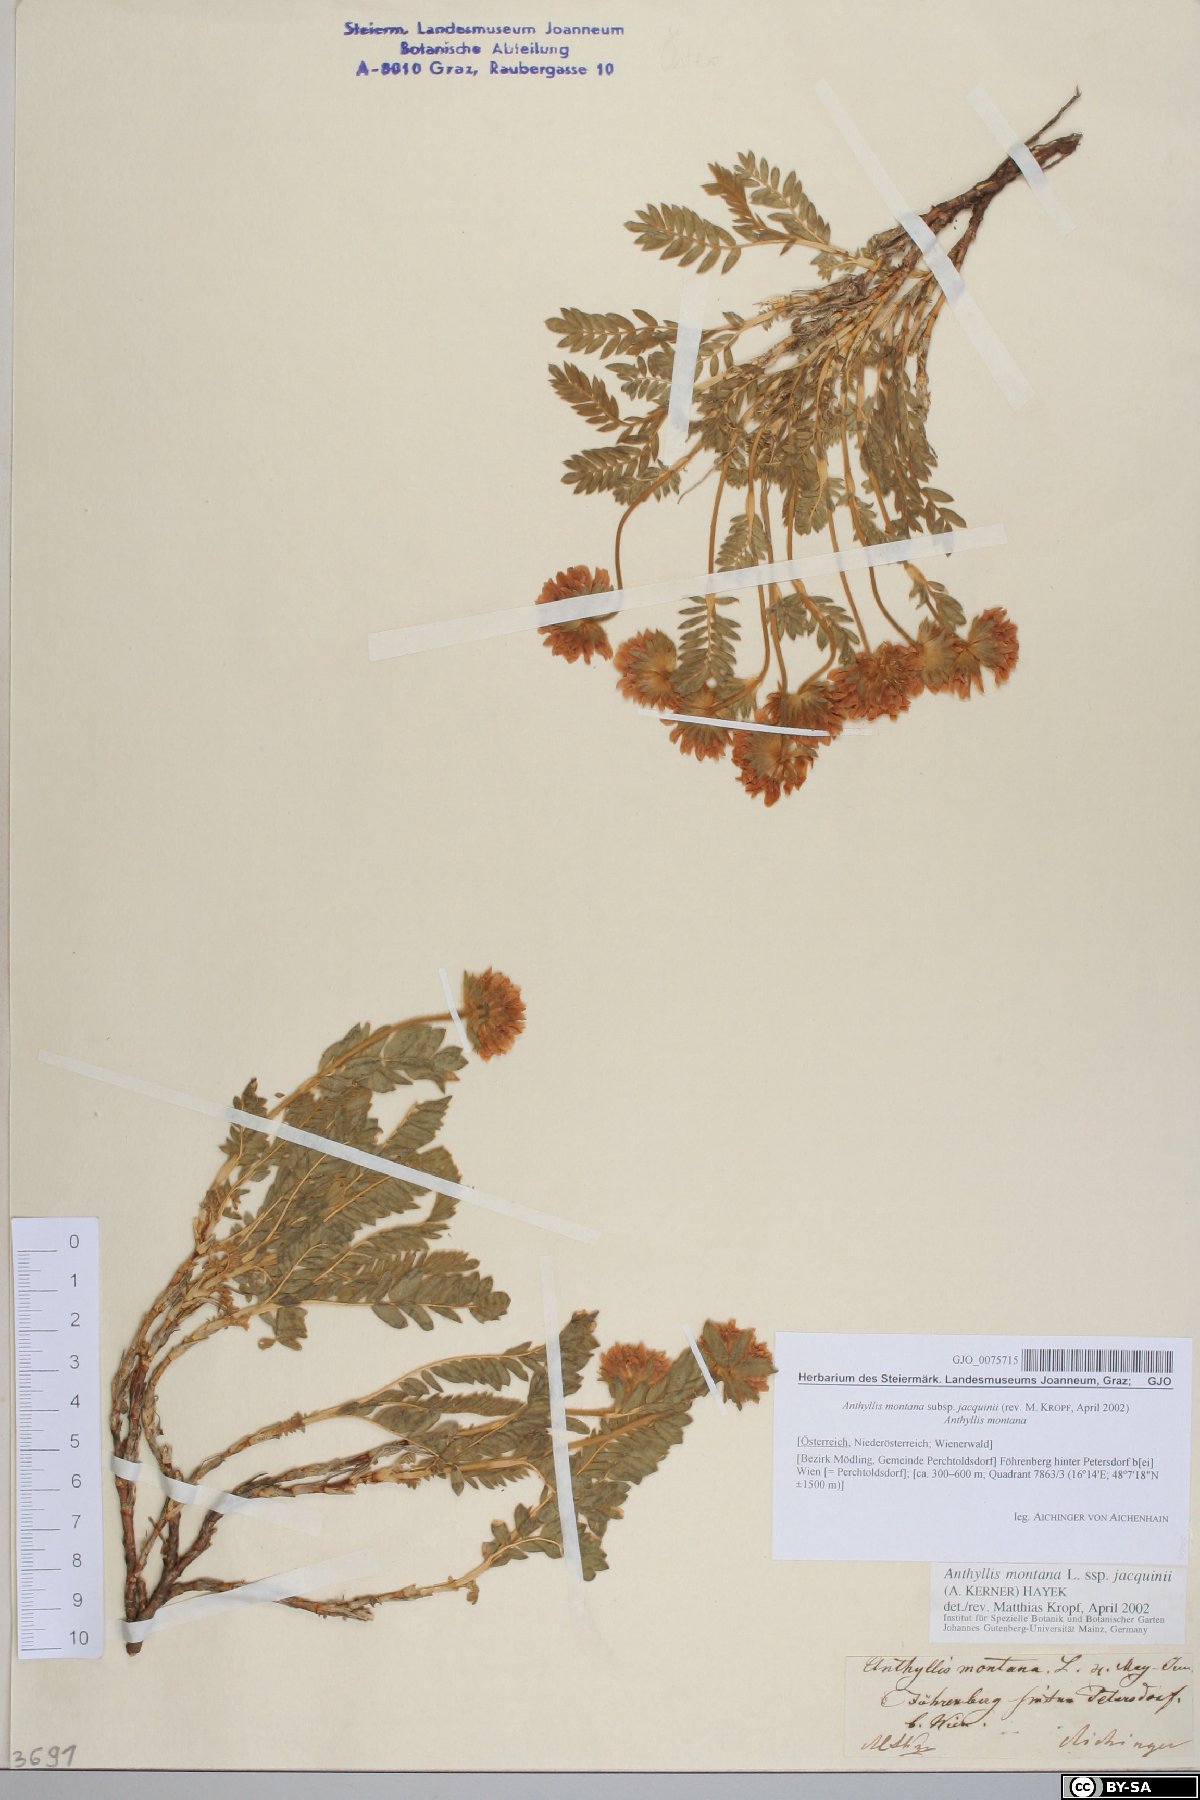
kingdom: Plantae
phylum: Tracheophyta
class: Magnoliopsida
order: Fabales
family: Fabaceae
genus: Anthyllis
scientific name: Anthyllis montana
